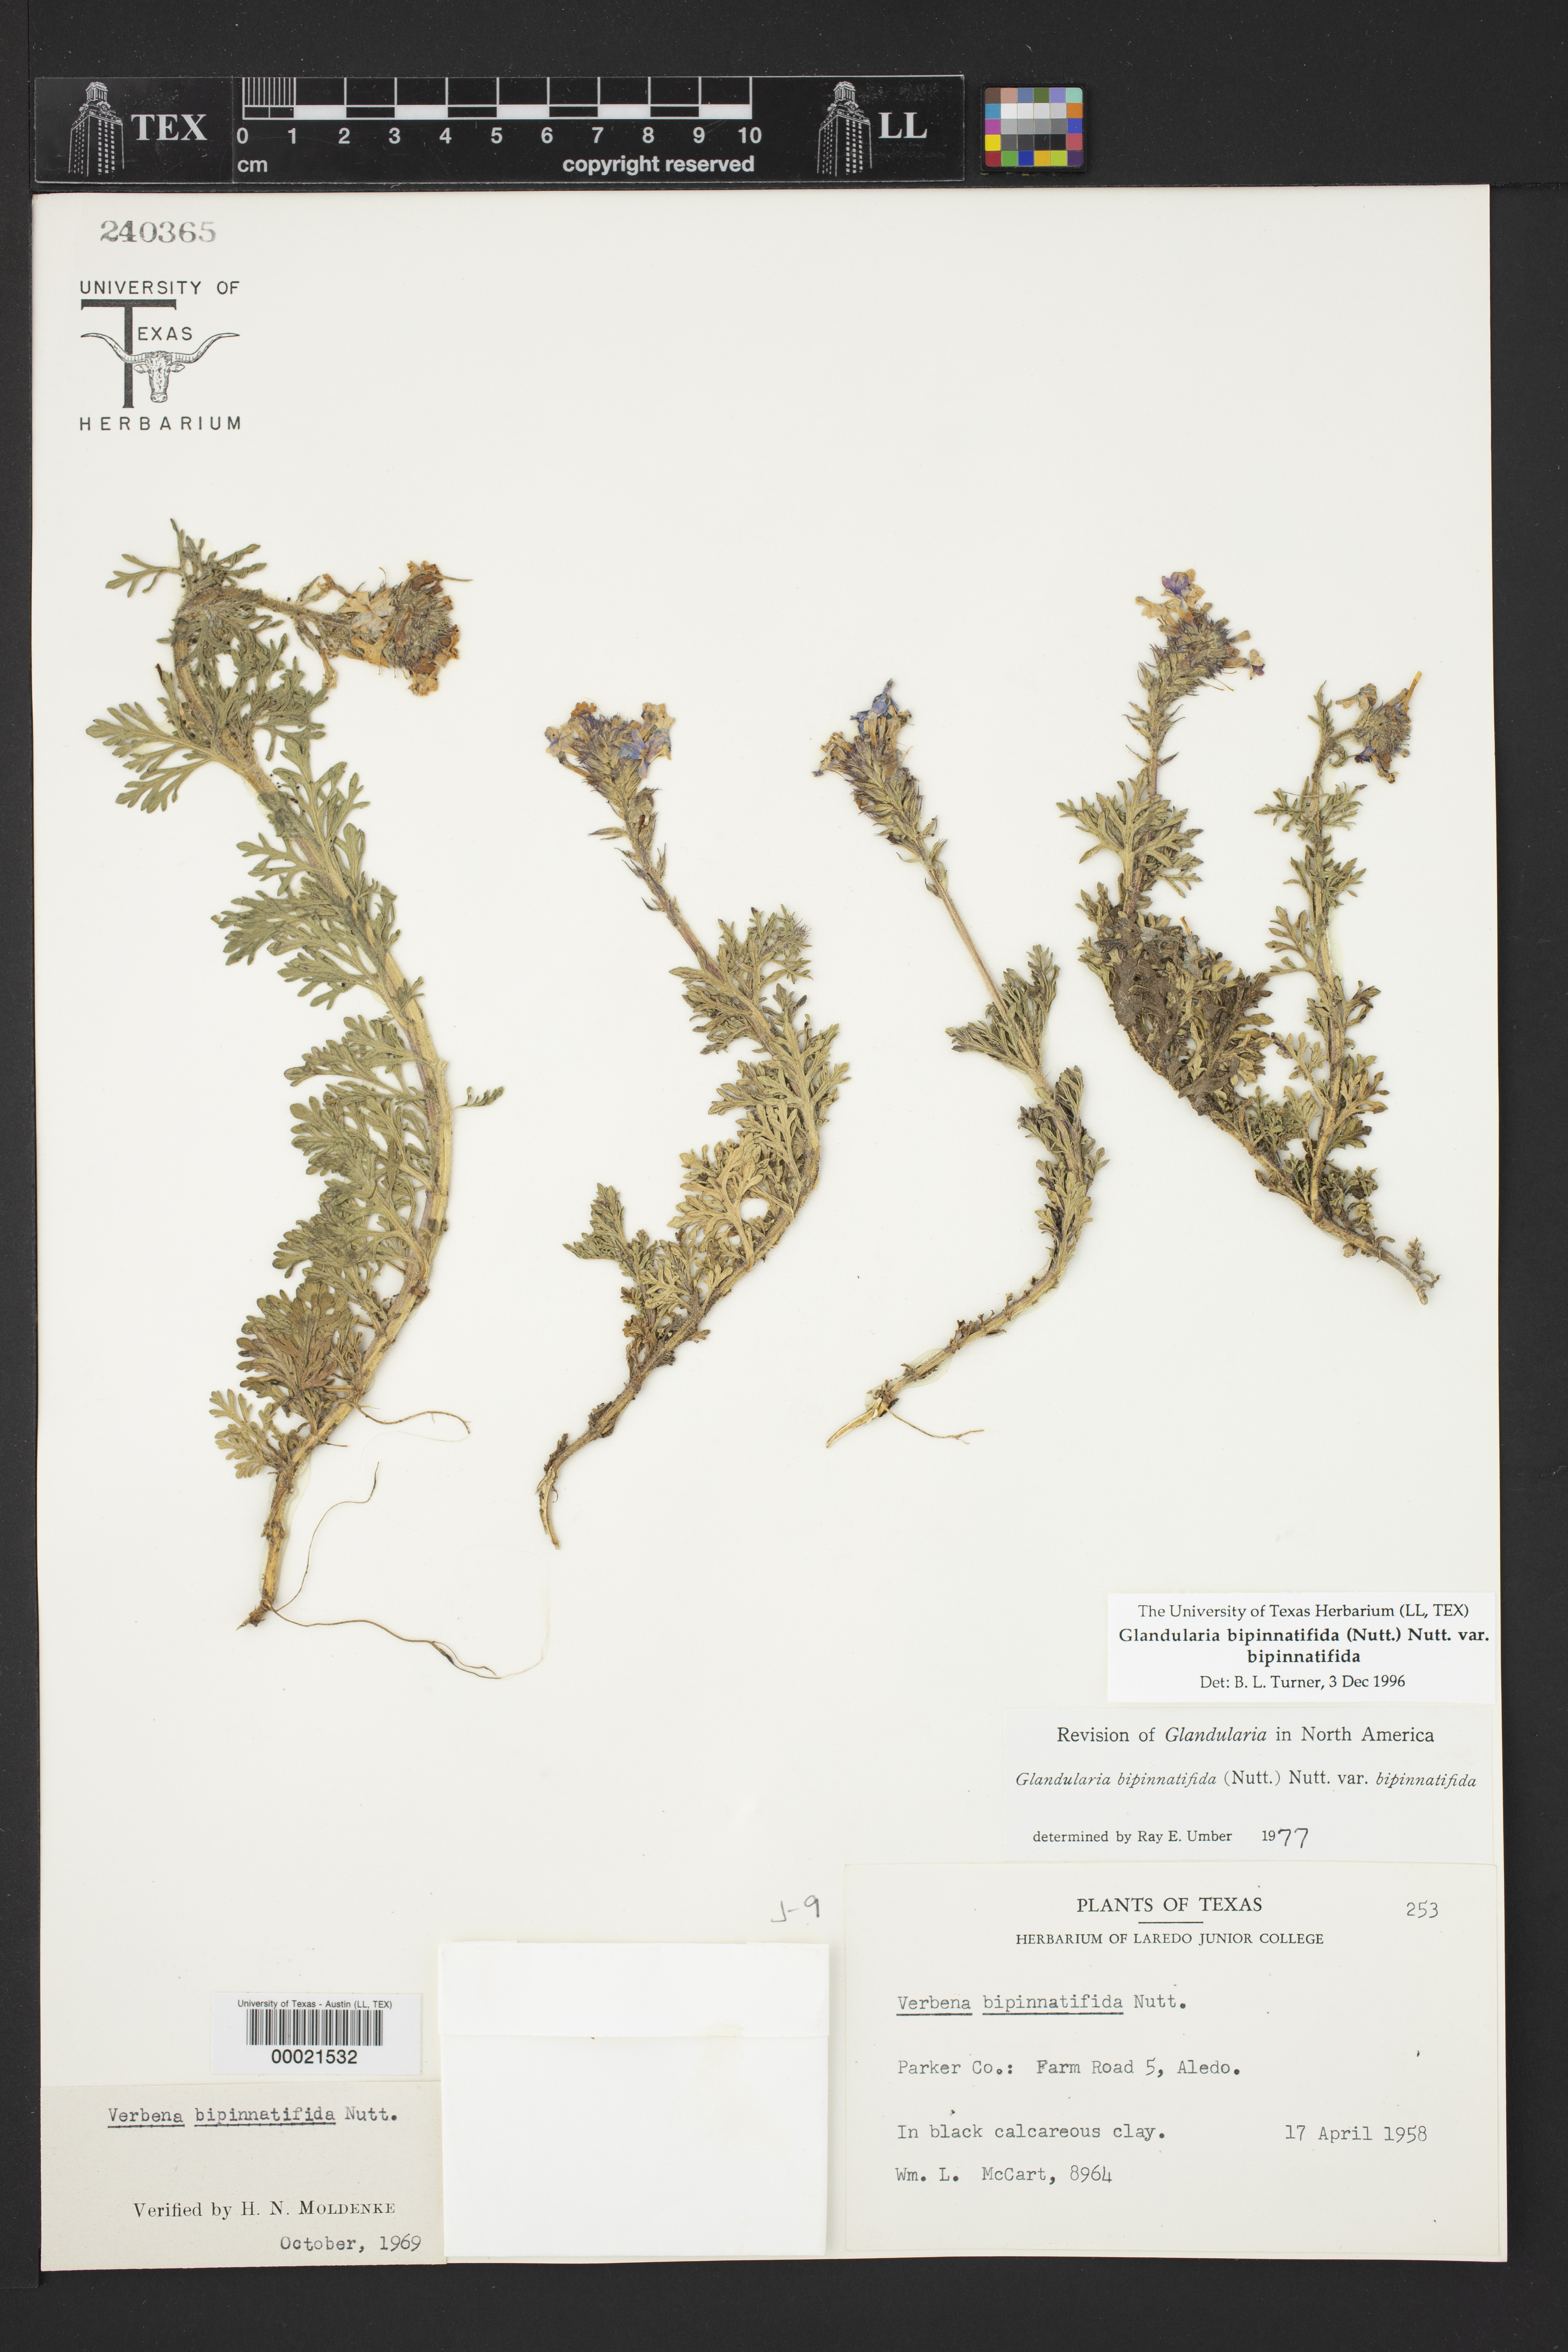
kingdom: Plantae
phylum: Tracheophyta
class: Magnoliopsida
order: Lamiales
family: Verbenaceae
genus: Verbena
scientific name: Verbena bipinnatifida
